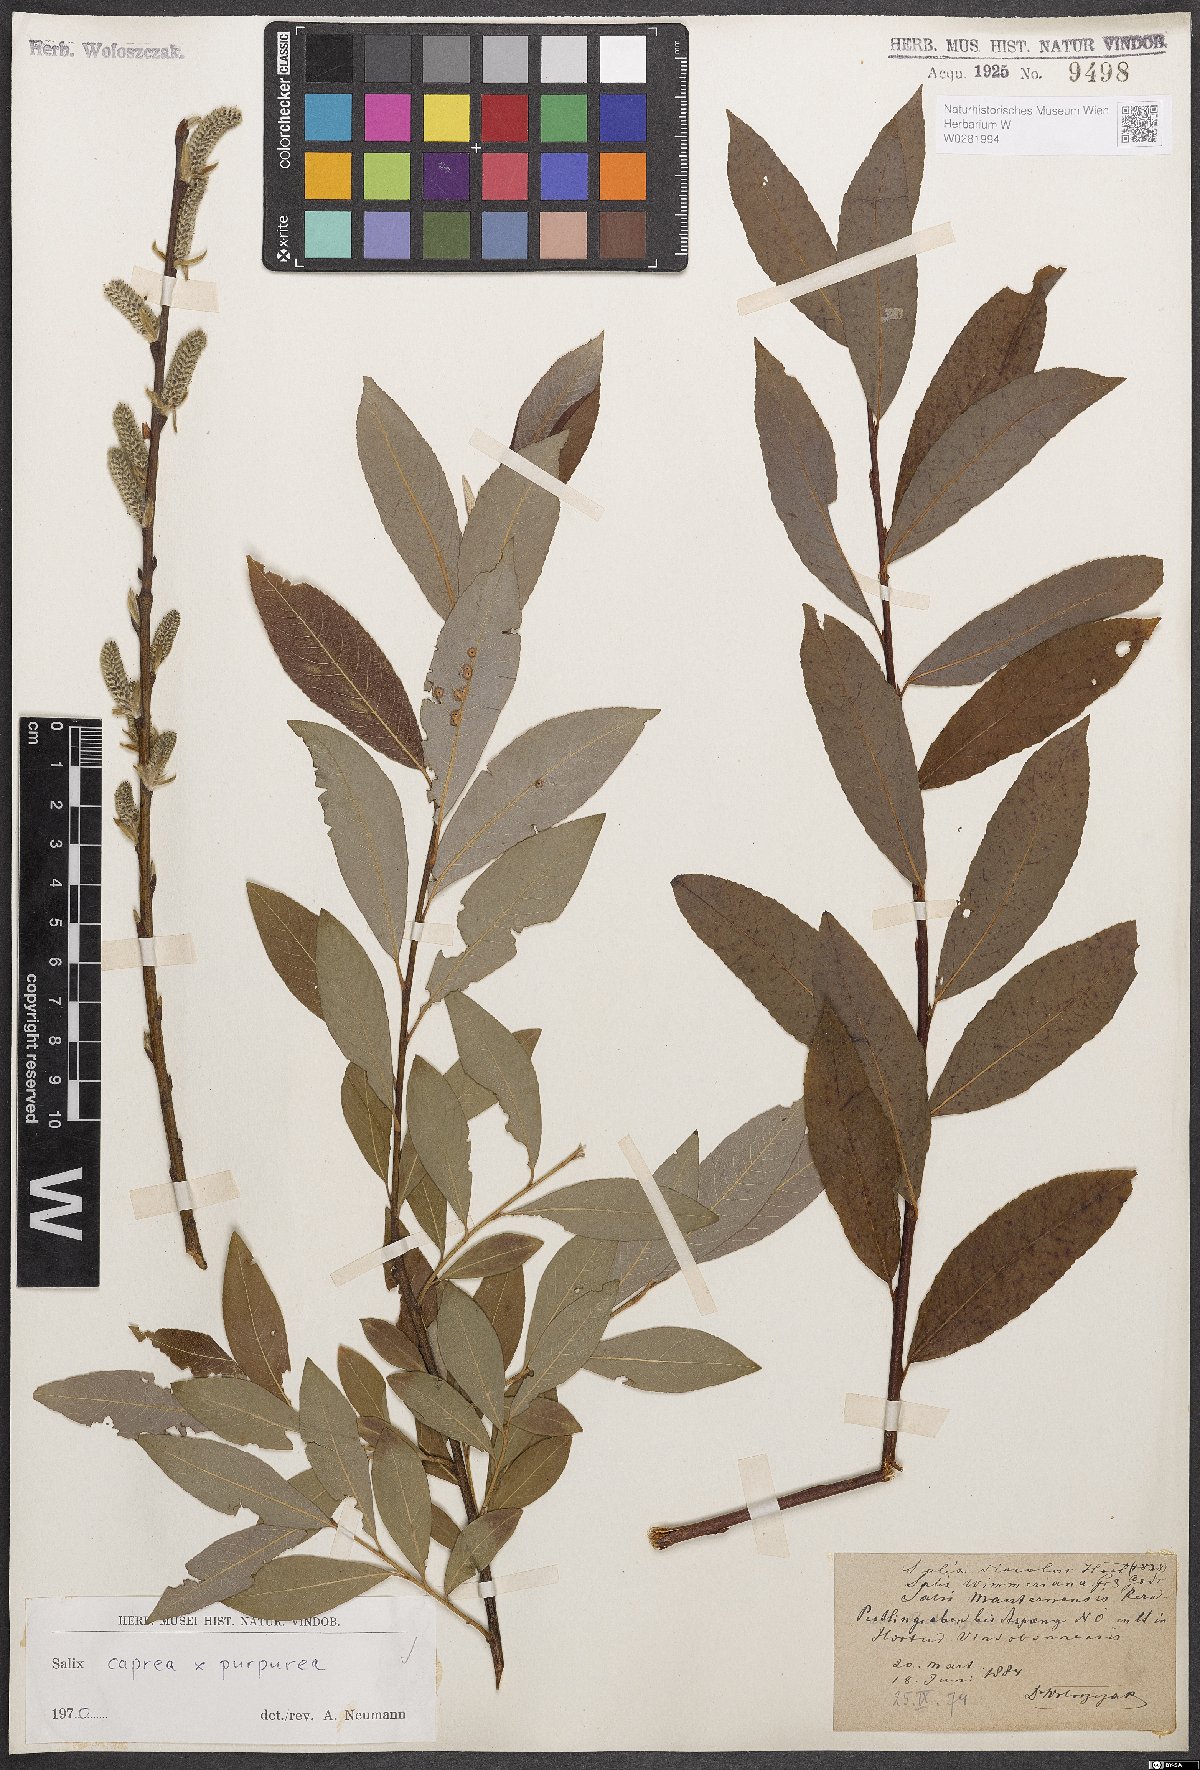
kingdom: Plantae
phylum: Tracheophyta
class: Magnoliopsida
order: Malpighiales
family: Salicaceae
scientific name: Salicaceae
